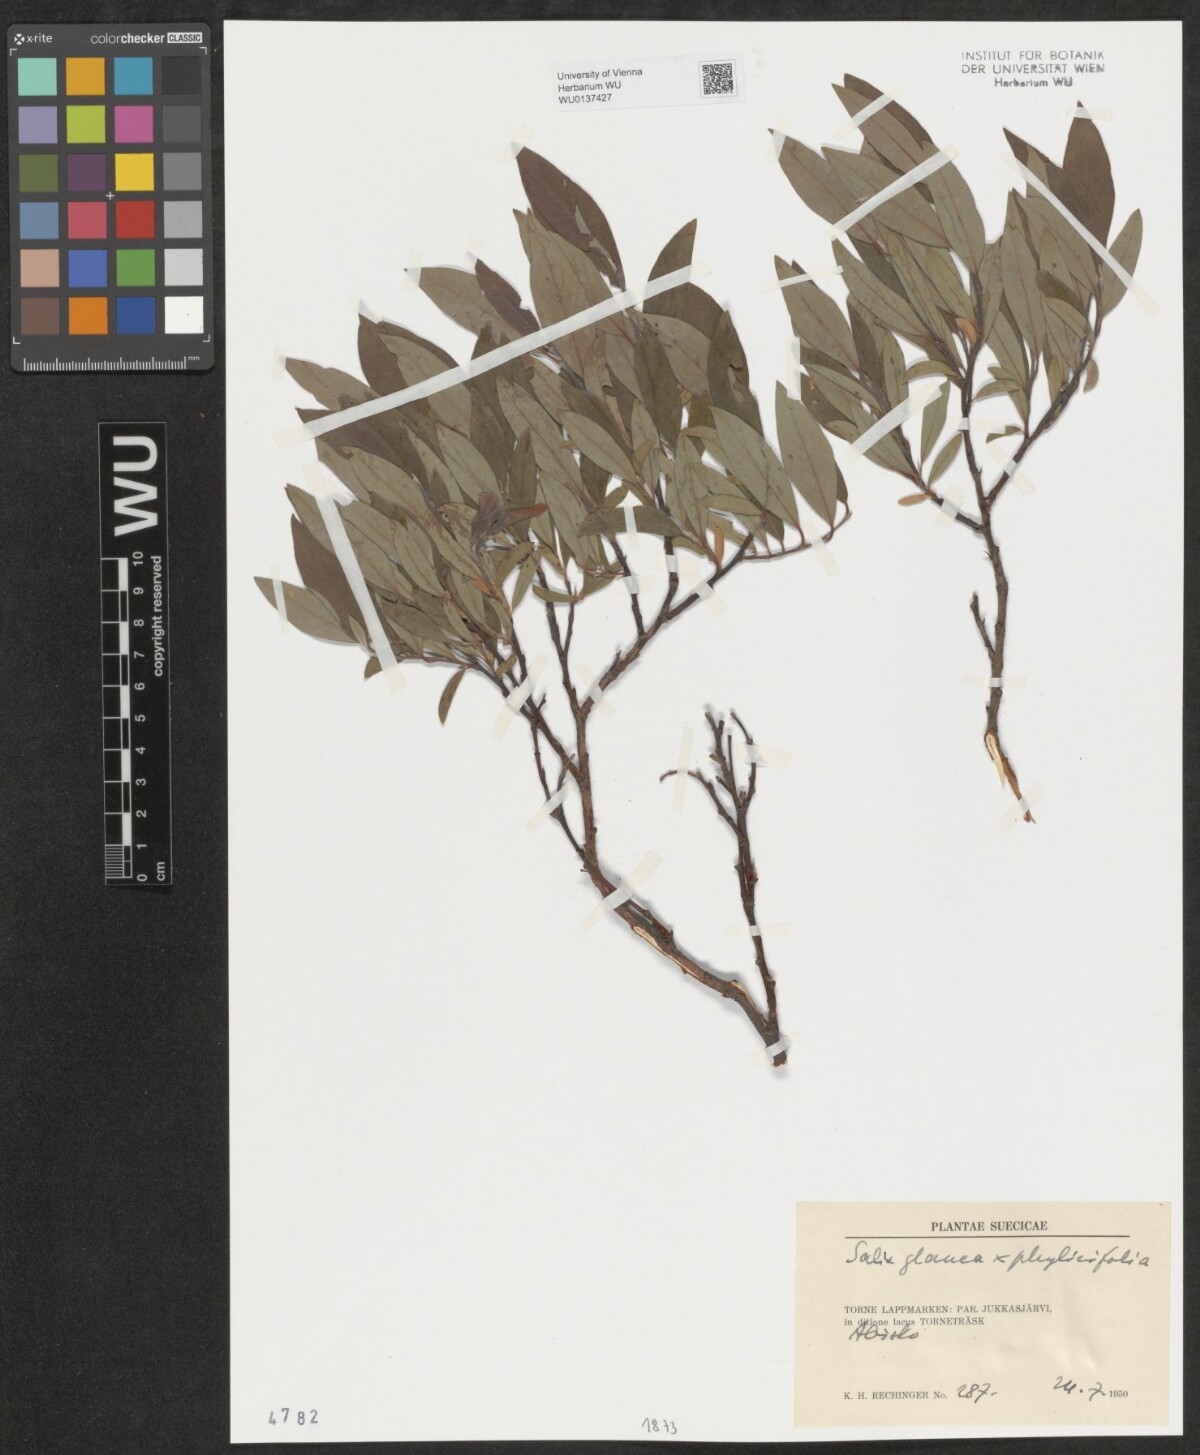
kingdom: Plantae
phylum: Tracheophyta
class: Magnoliopsida
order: Malpighiales
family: Salicaceae
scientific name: Salicaceae
